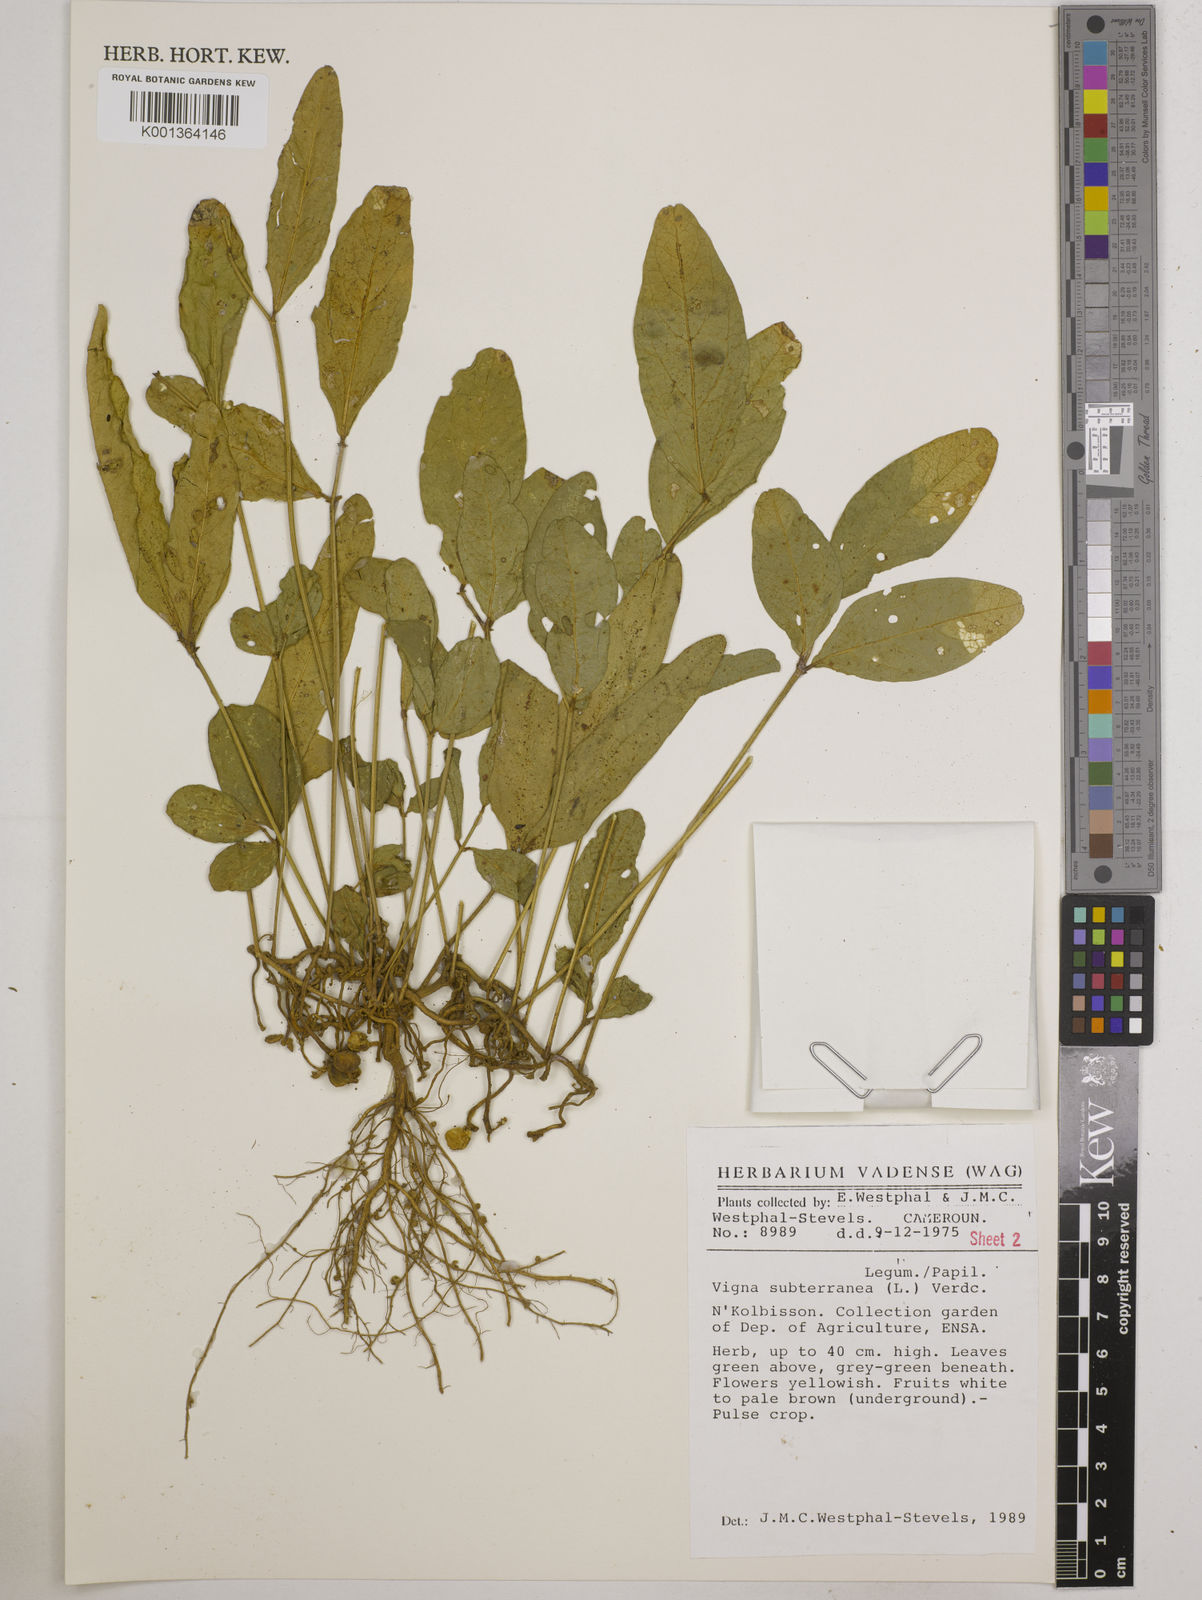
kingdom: Plantae
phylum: Tracheophyta
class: Magnoliopsida
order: Fabales
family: Fabaceae
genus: Vigna
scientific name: Vigna subterranea
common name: Bambara groundnut
